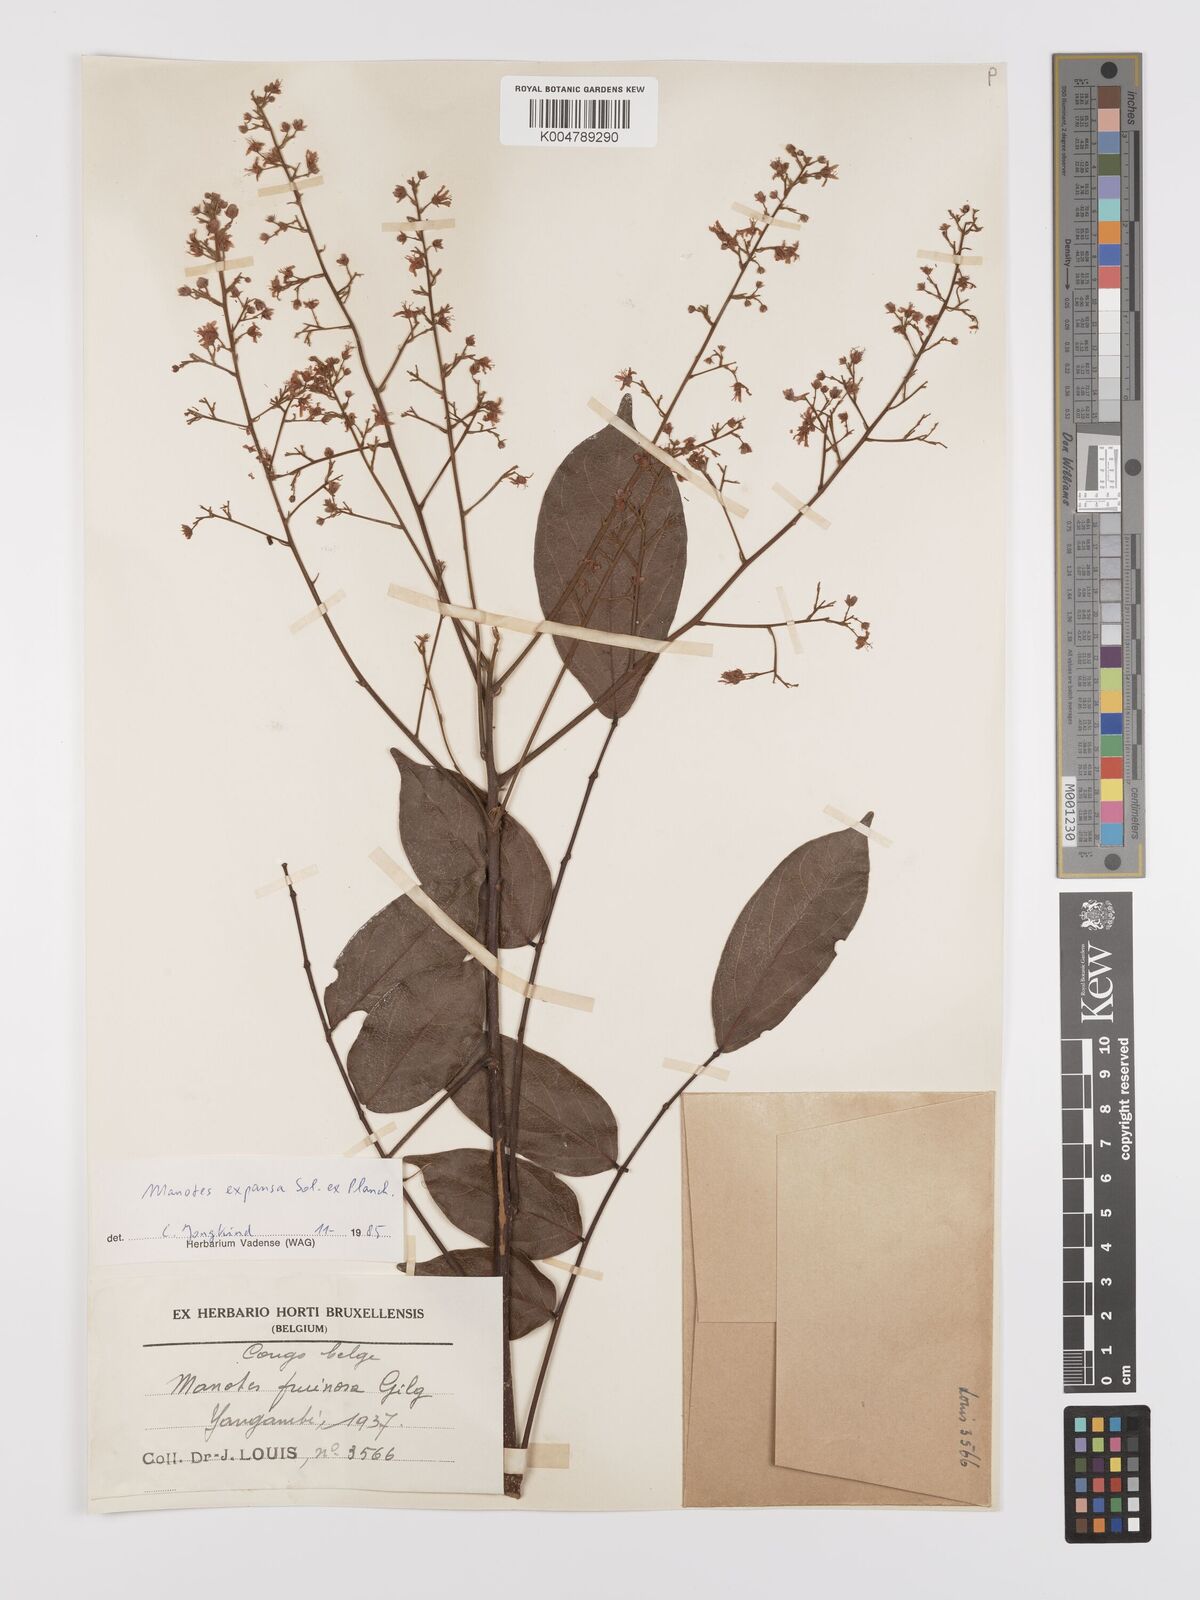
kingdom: Plantae
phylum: Tracheophyta
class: Magnoliopsida
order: Oxalidales
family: Connaraceae
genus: Manotes
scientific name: Manotes expansa
